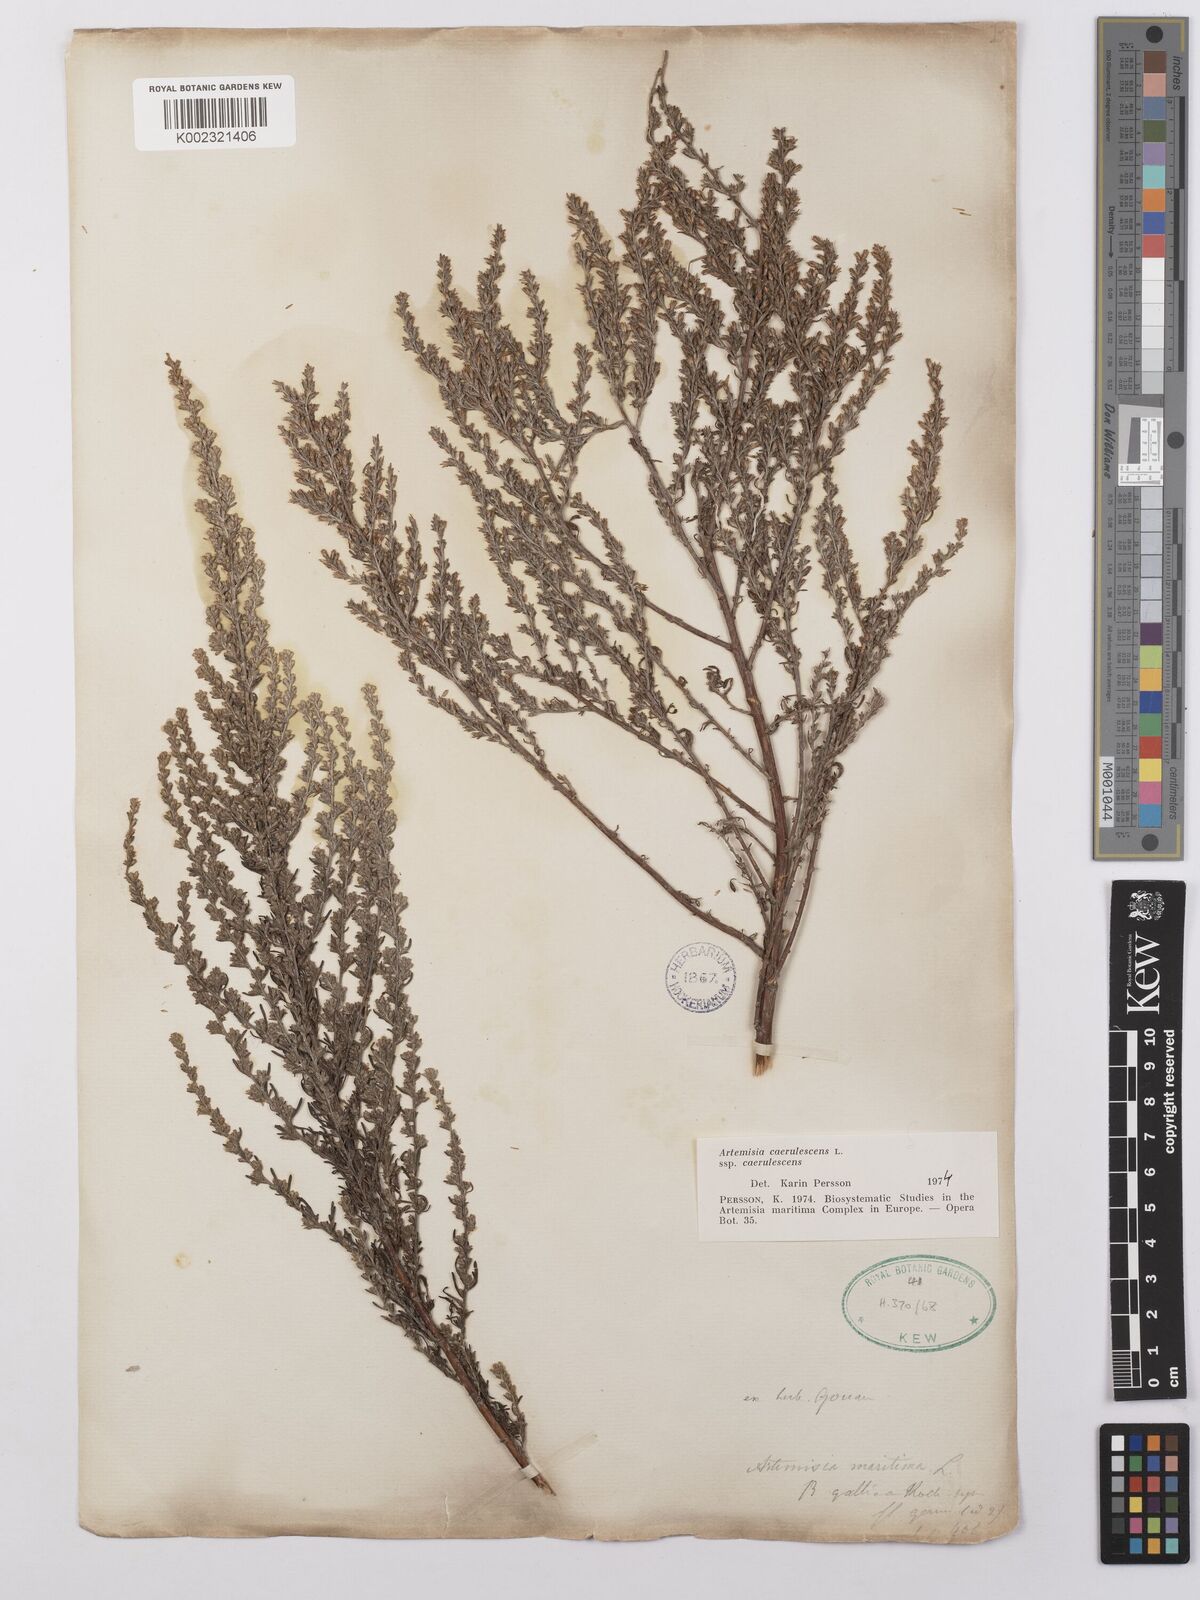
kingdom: Plantae
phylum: Tracheophyta
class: Magnoliopsida
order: Asterales
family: Asteraceae
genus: Artemisia
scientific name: Artemisia caerulescens
